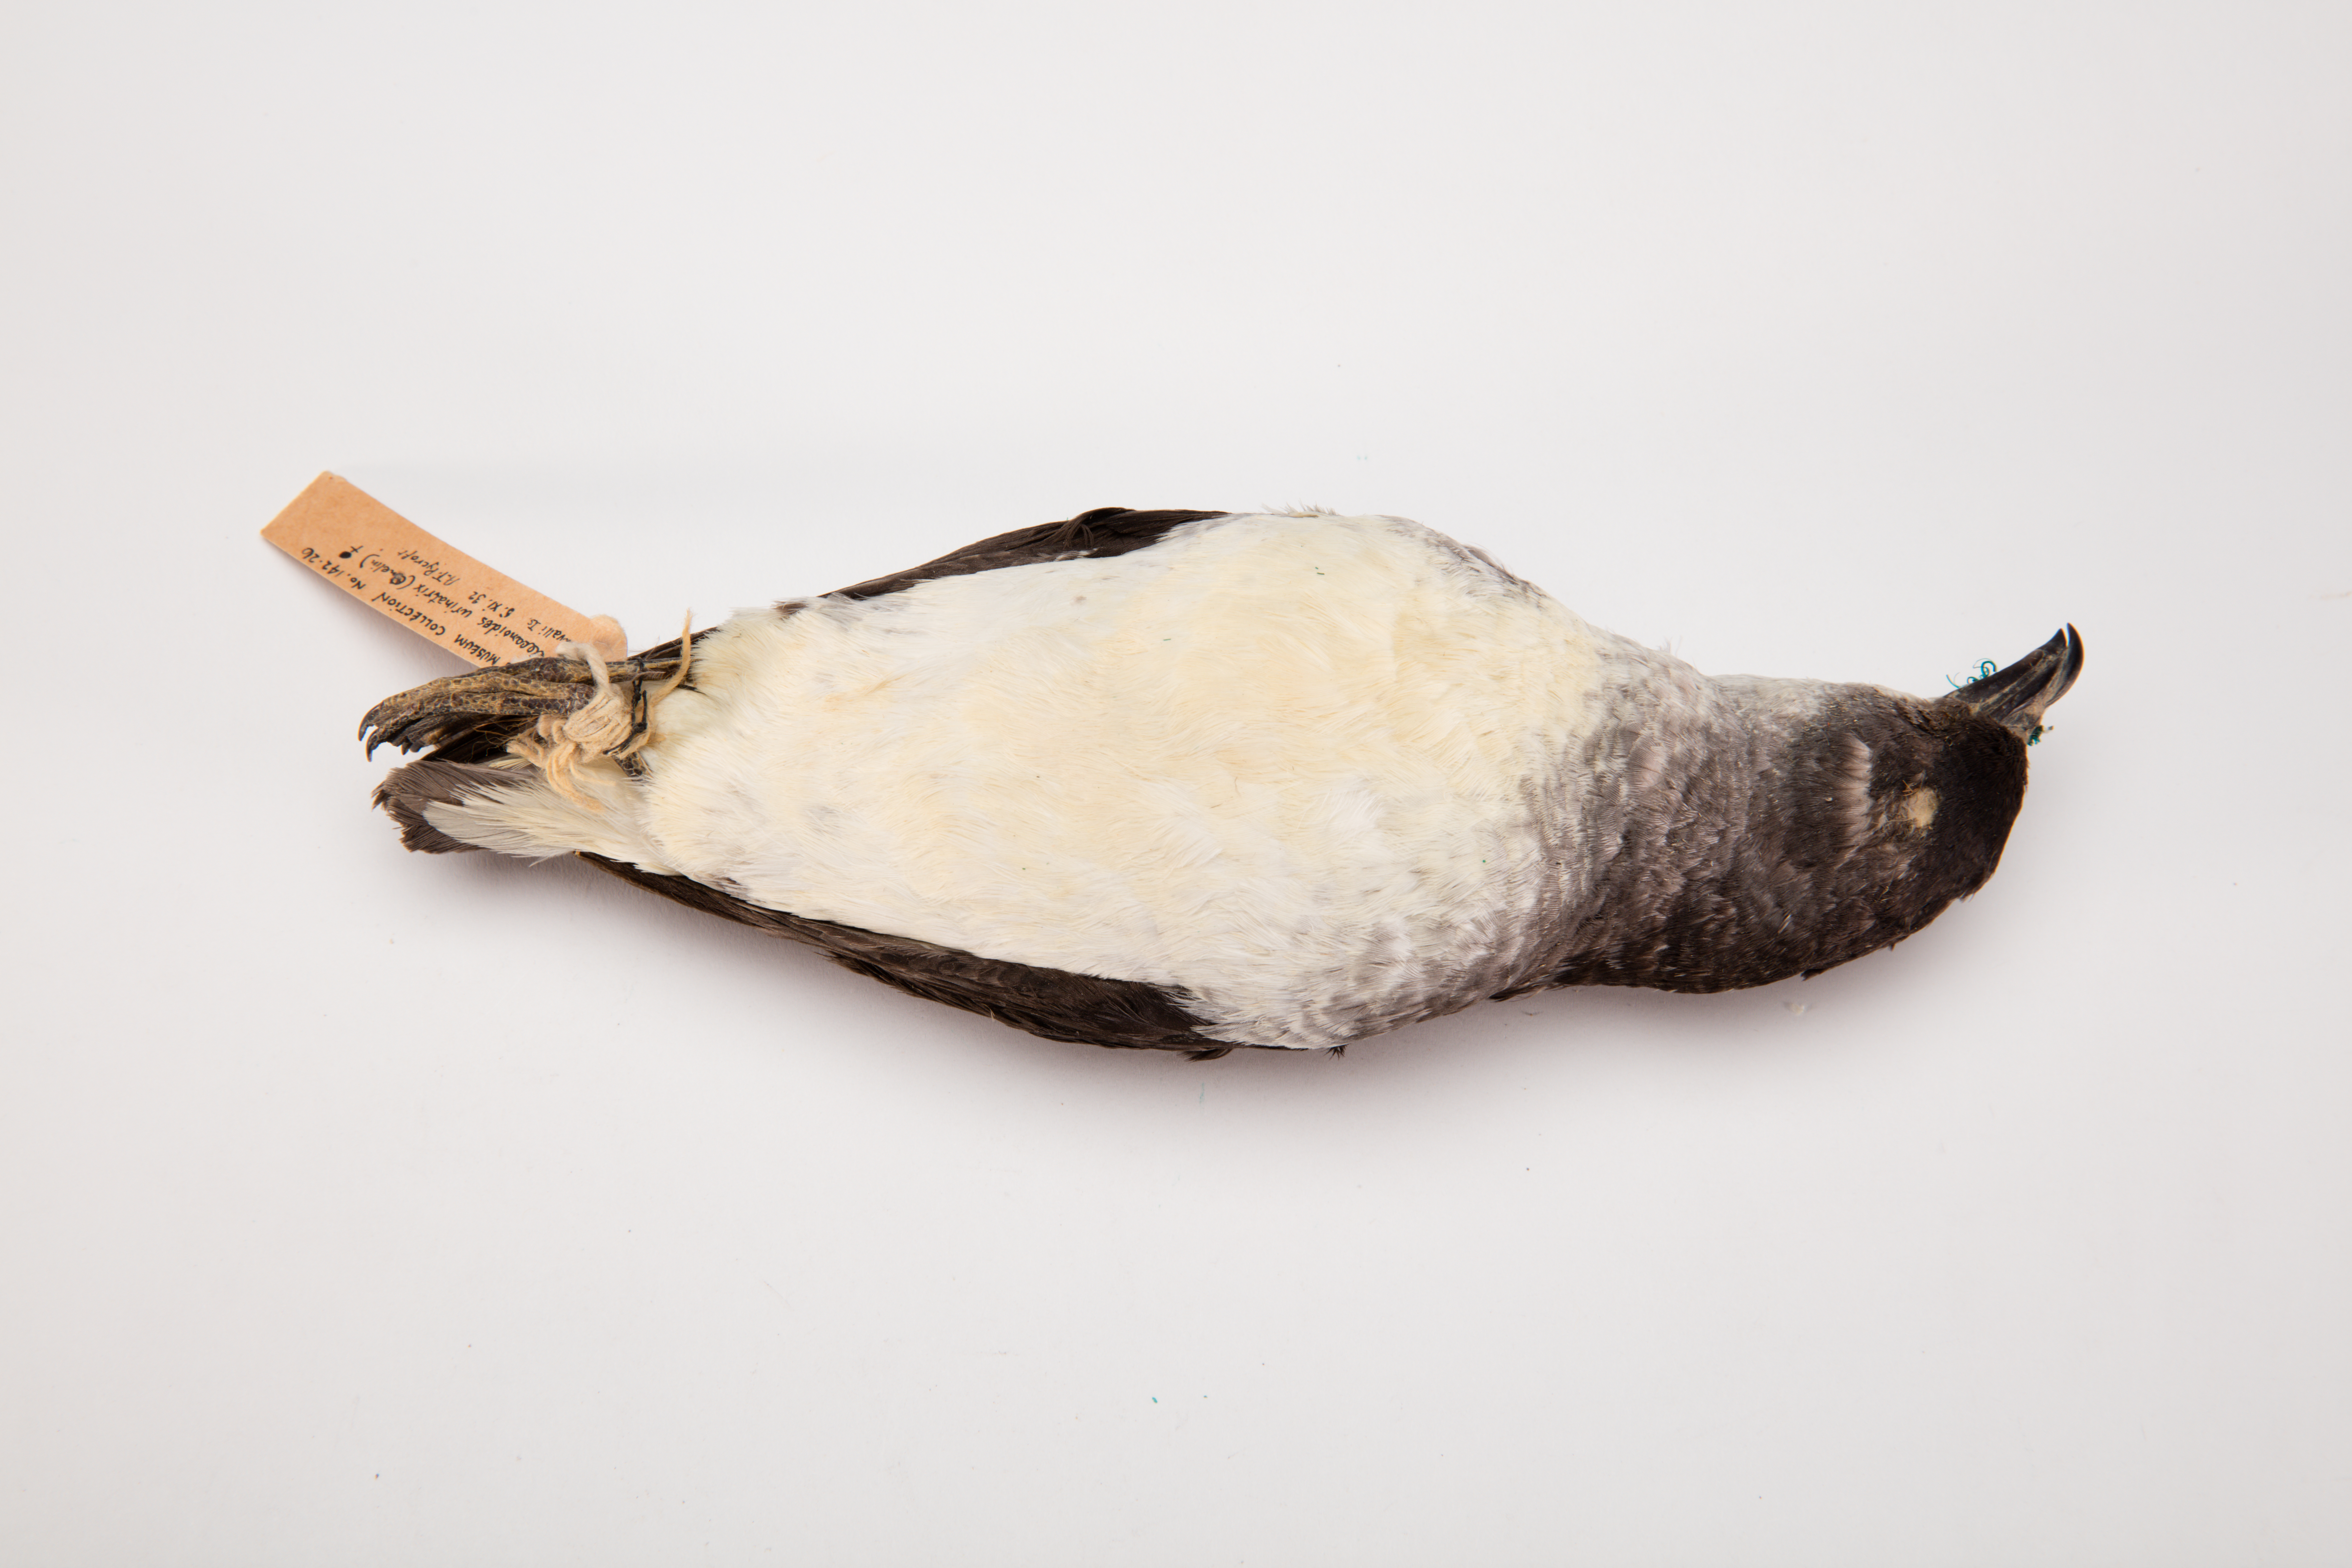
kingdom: Animalia
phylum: Chordata
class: Aves
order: Procellariiformes
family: Pelecanoididae
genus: Pelecanoides
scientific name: Pelecanoides urinatrix
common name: Common diving-petrel
